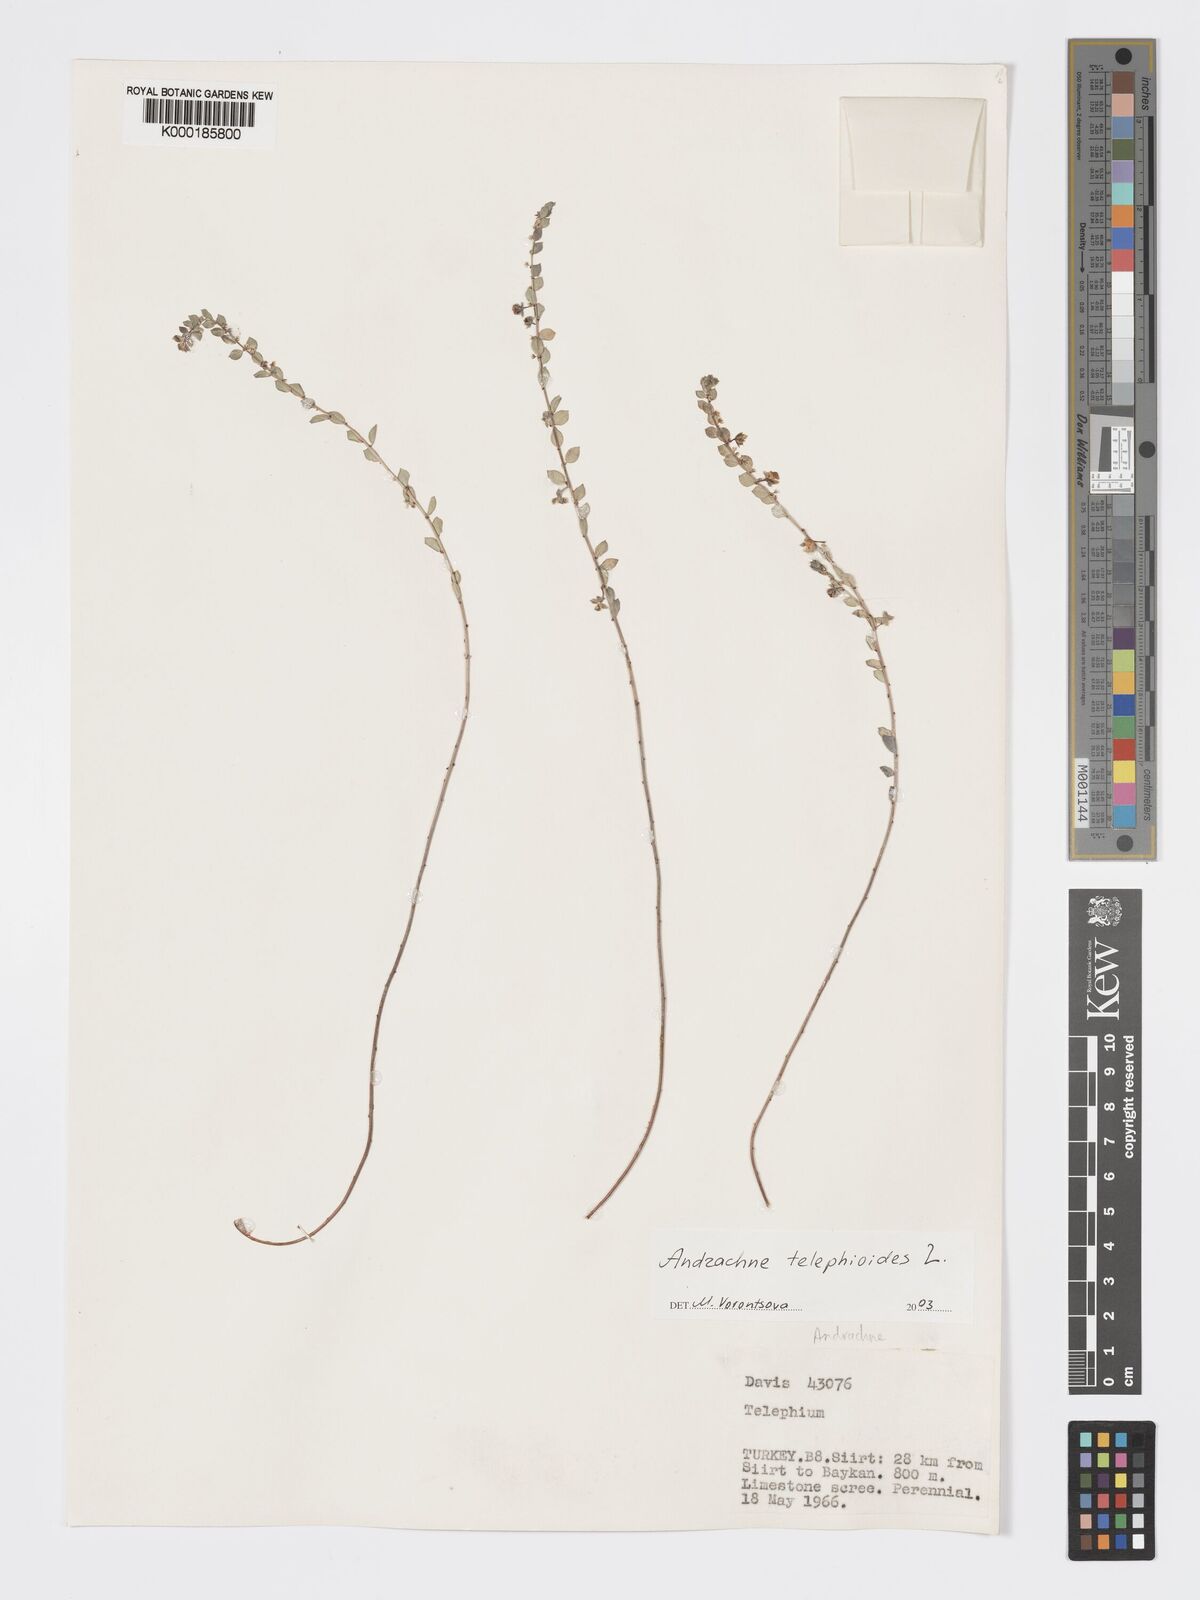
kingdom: Plantae
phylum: Tracheophyta
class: Magnoliopsida
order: Malpighiales
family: Phyllanthaceae
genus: Andrachne
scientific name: Andrachne telephioides
